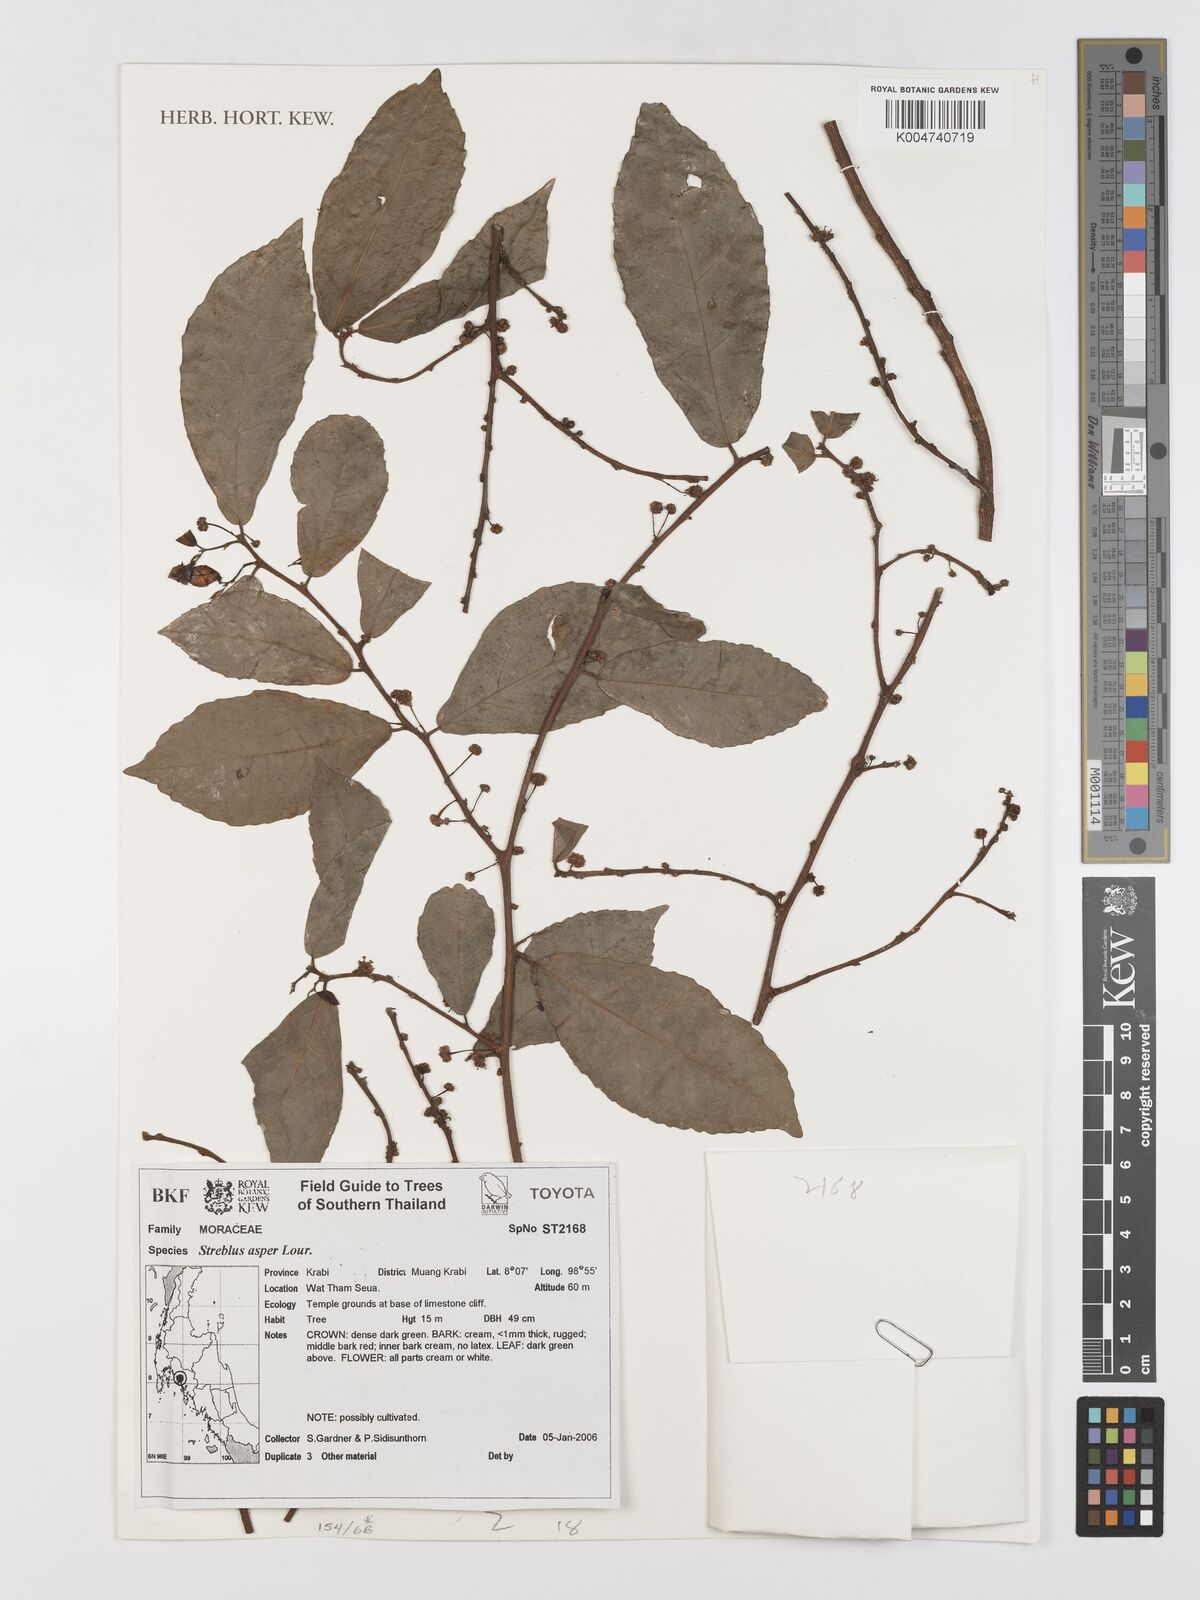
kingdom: Plantae
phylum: Tracheophyta
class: Magnoliopsida
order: Rosales
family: Moraceae
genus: Streblus
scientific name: Streblus asper
